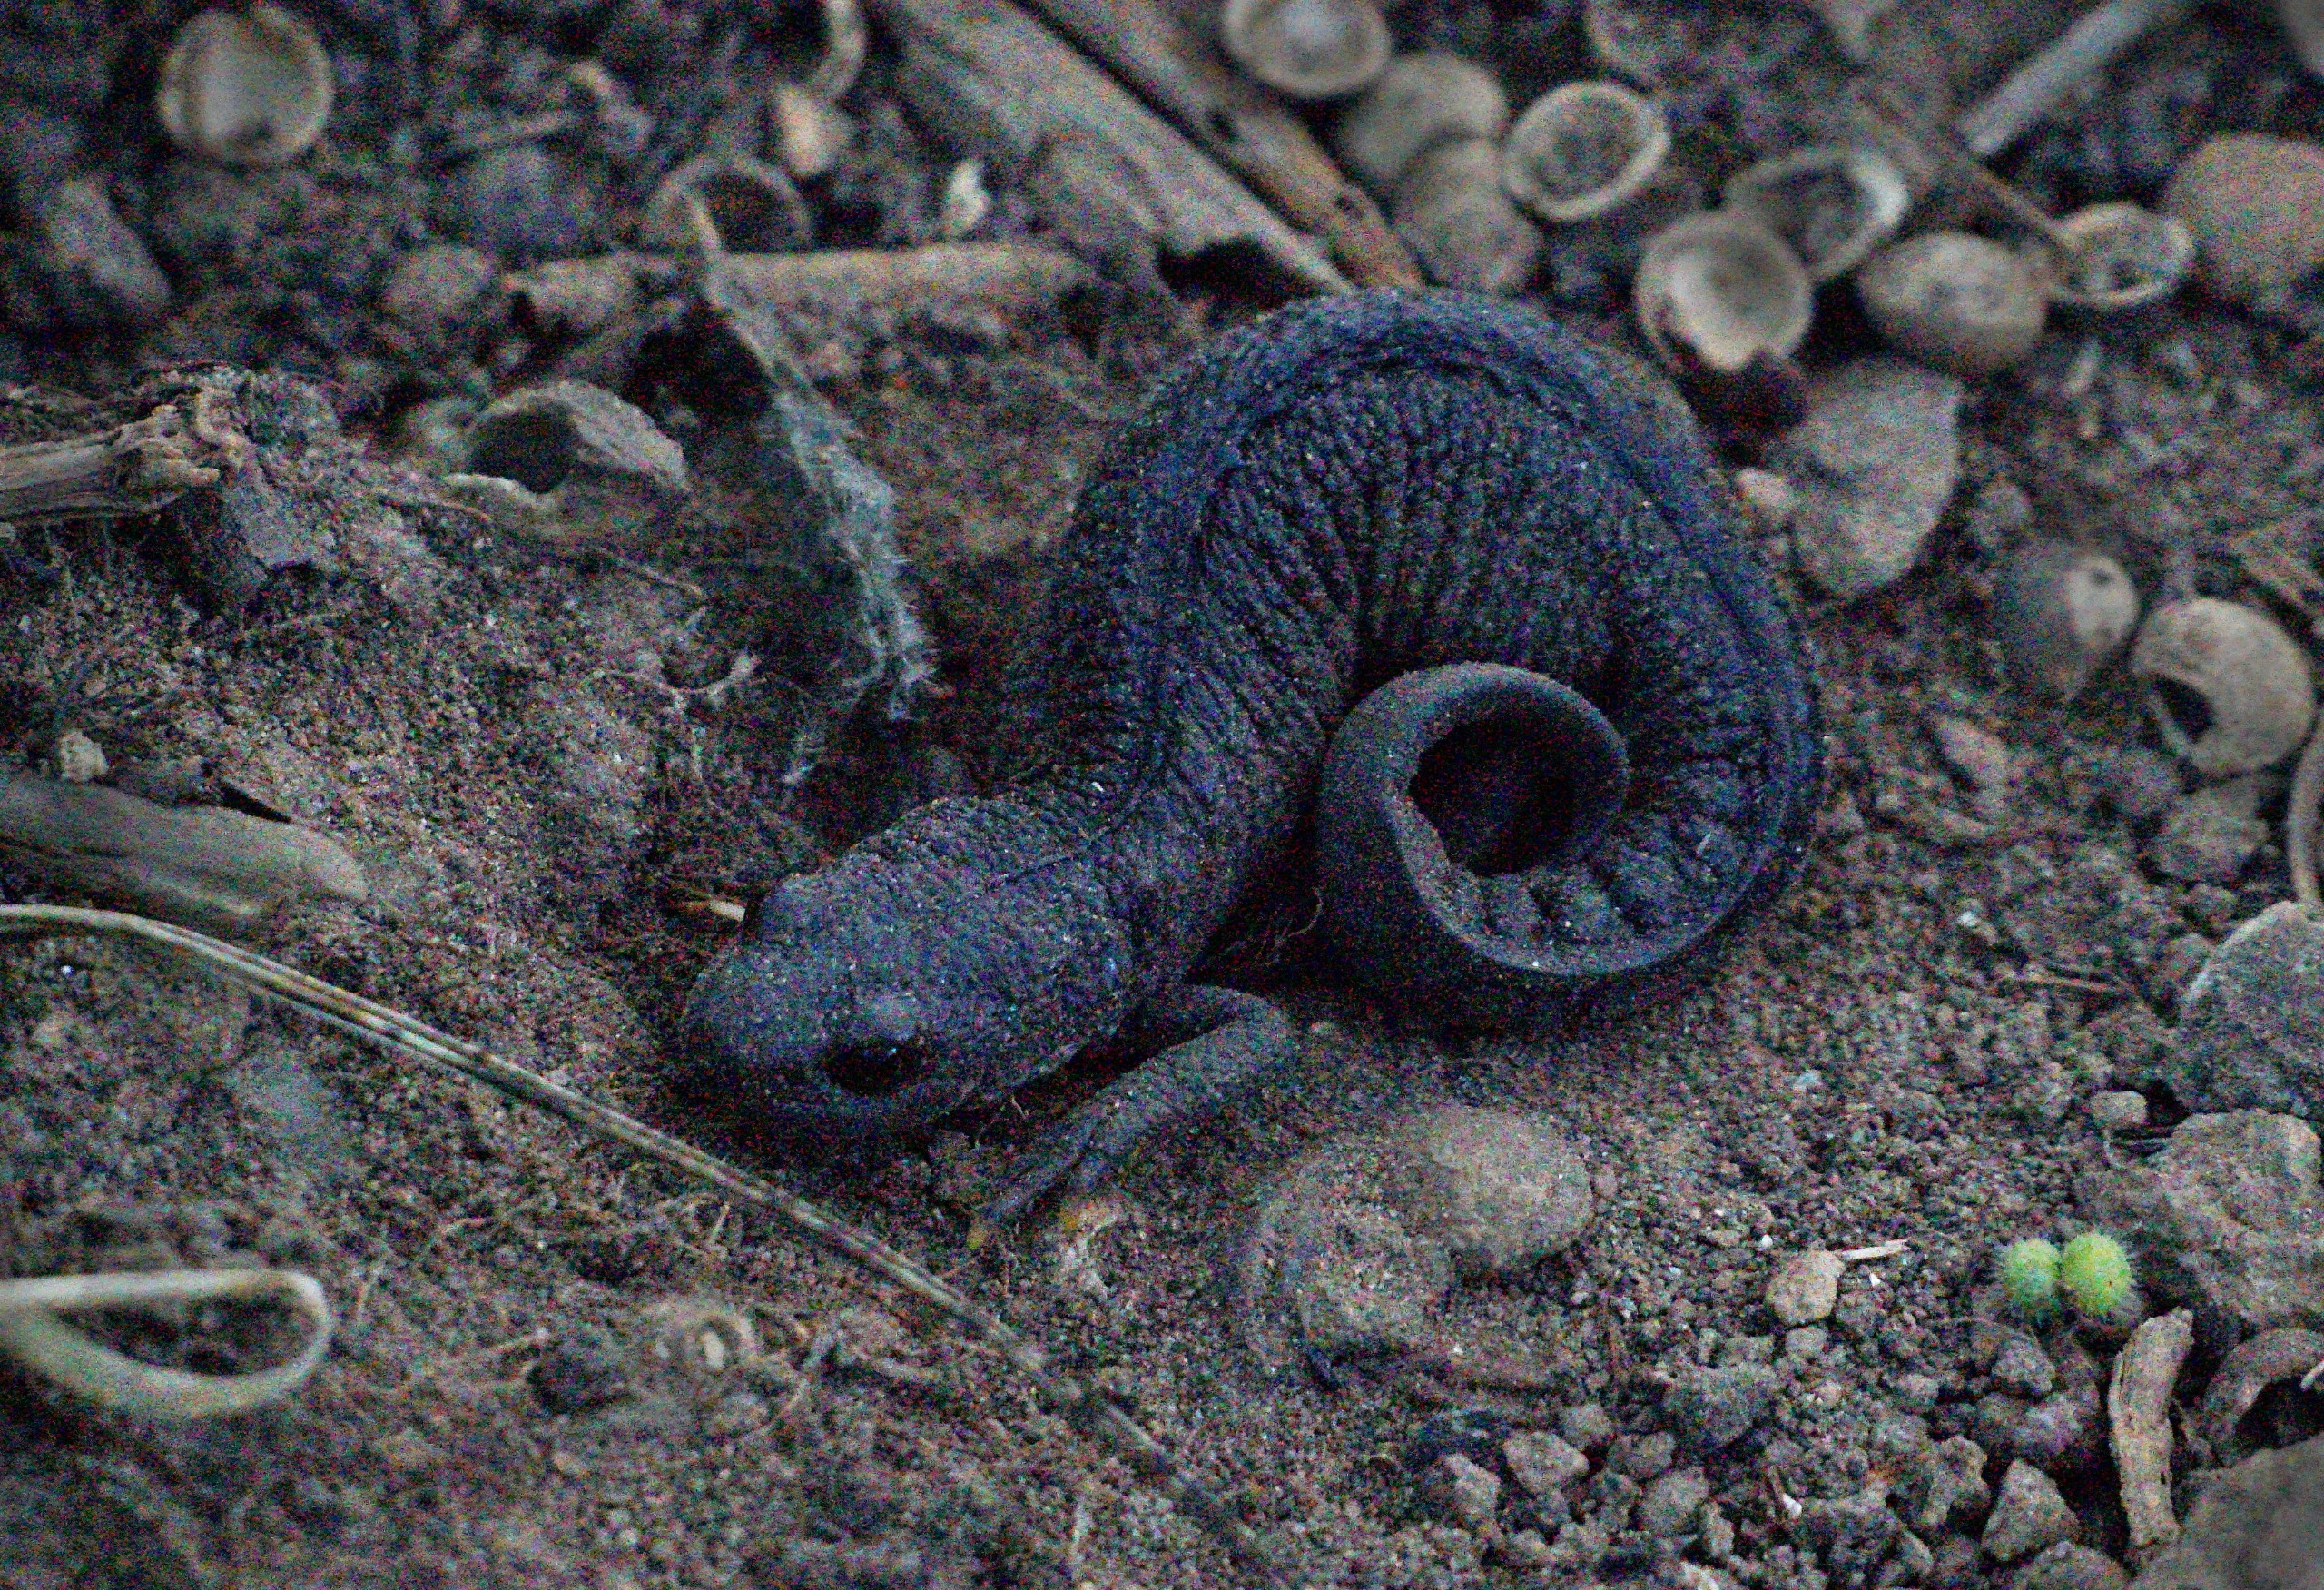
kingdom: Animalia
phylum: Chordata
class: Amphibia
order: Caudata
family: Salamandridae
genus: Triturus
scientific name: Triturus cristatus
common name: Stor vandsalamander
